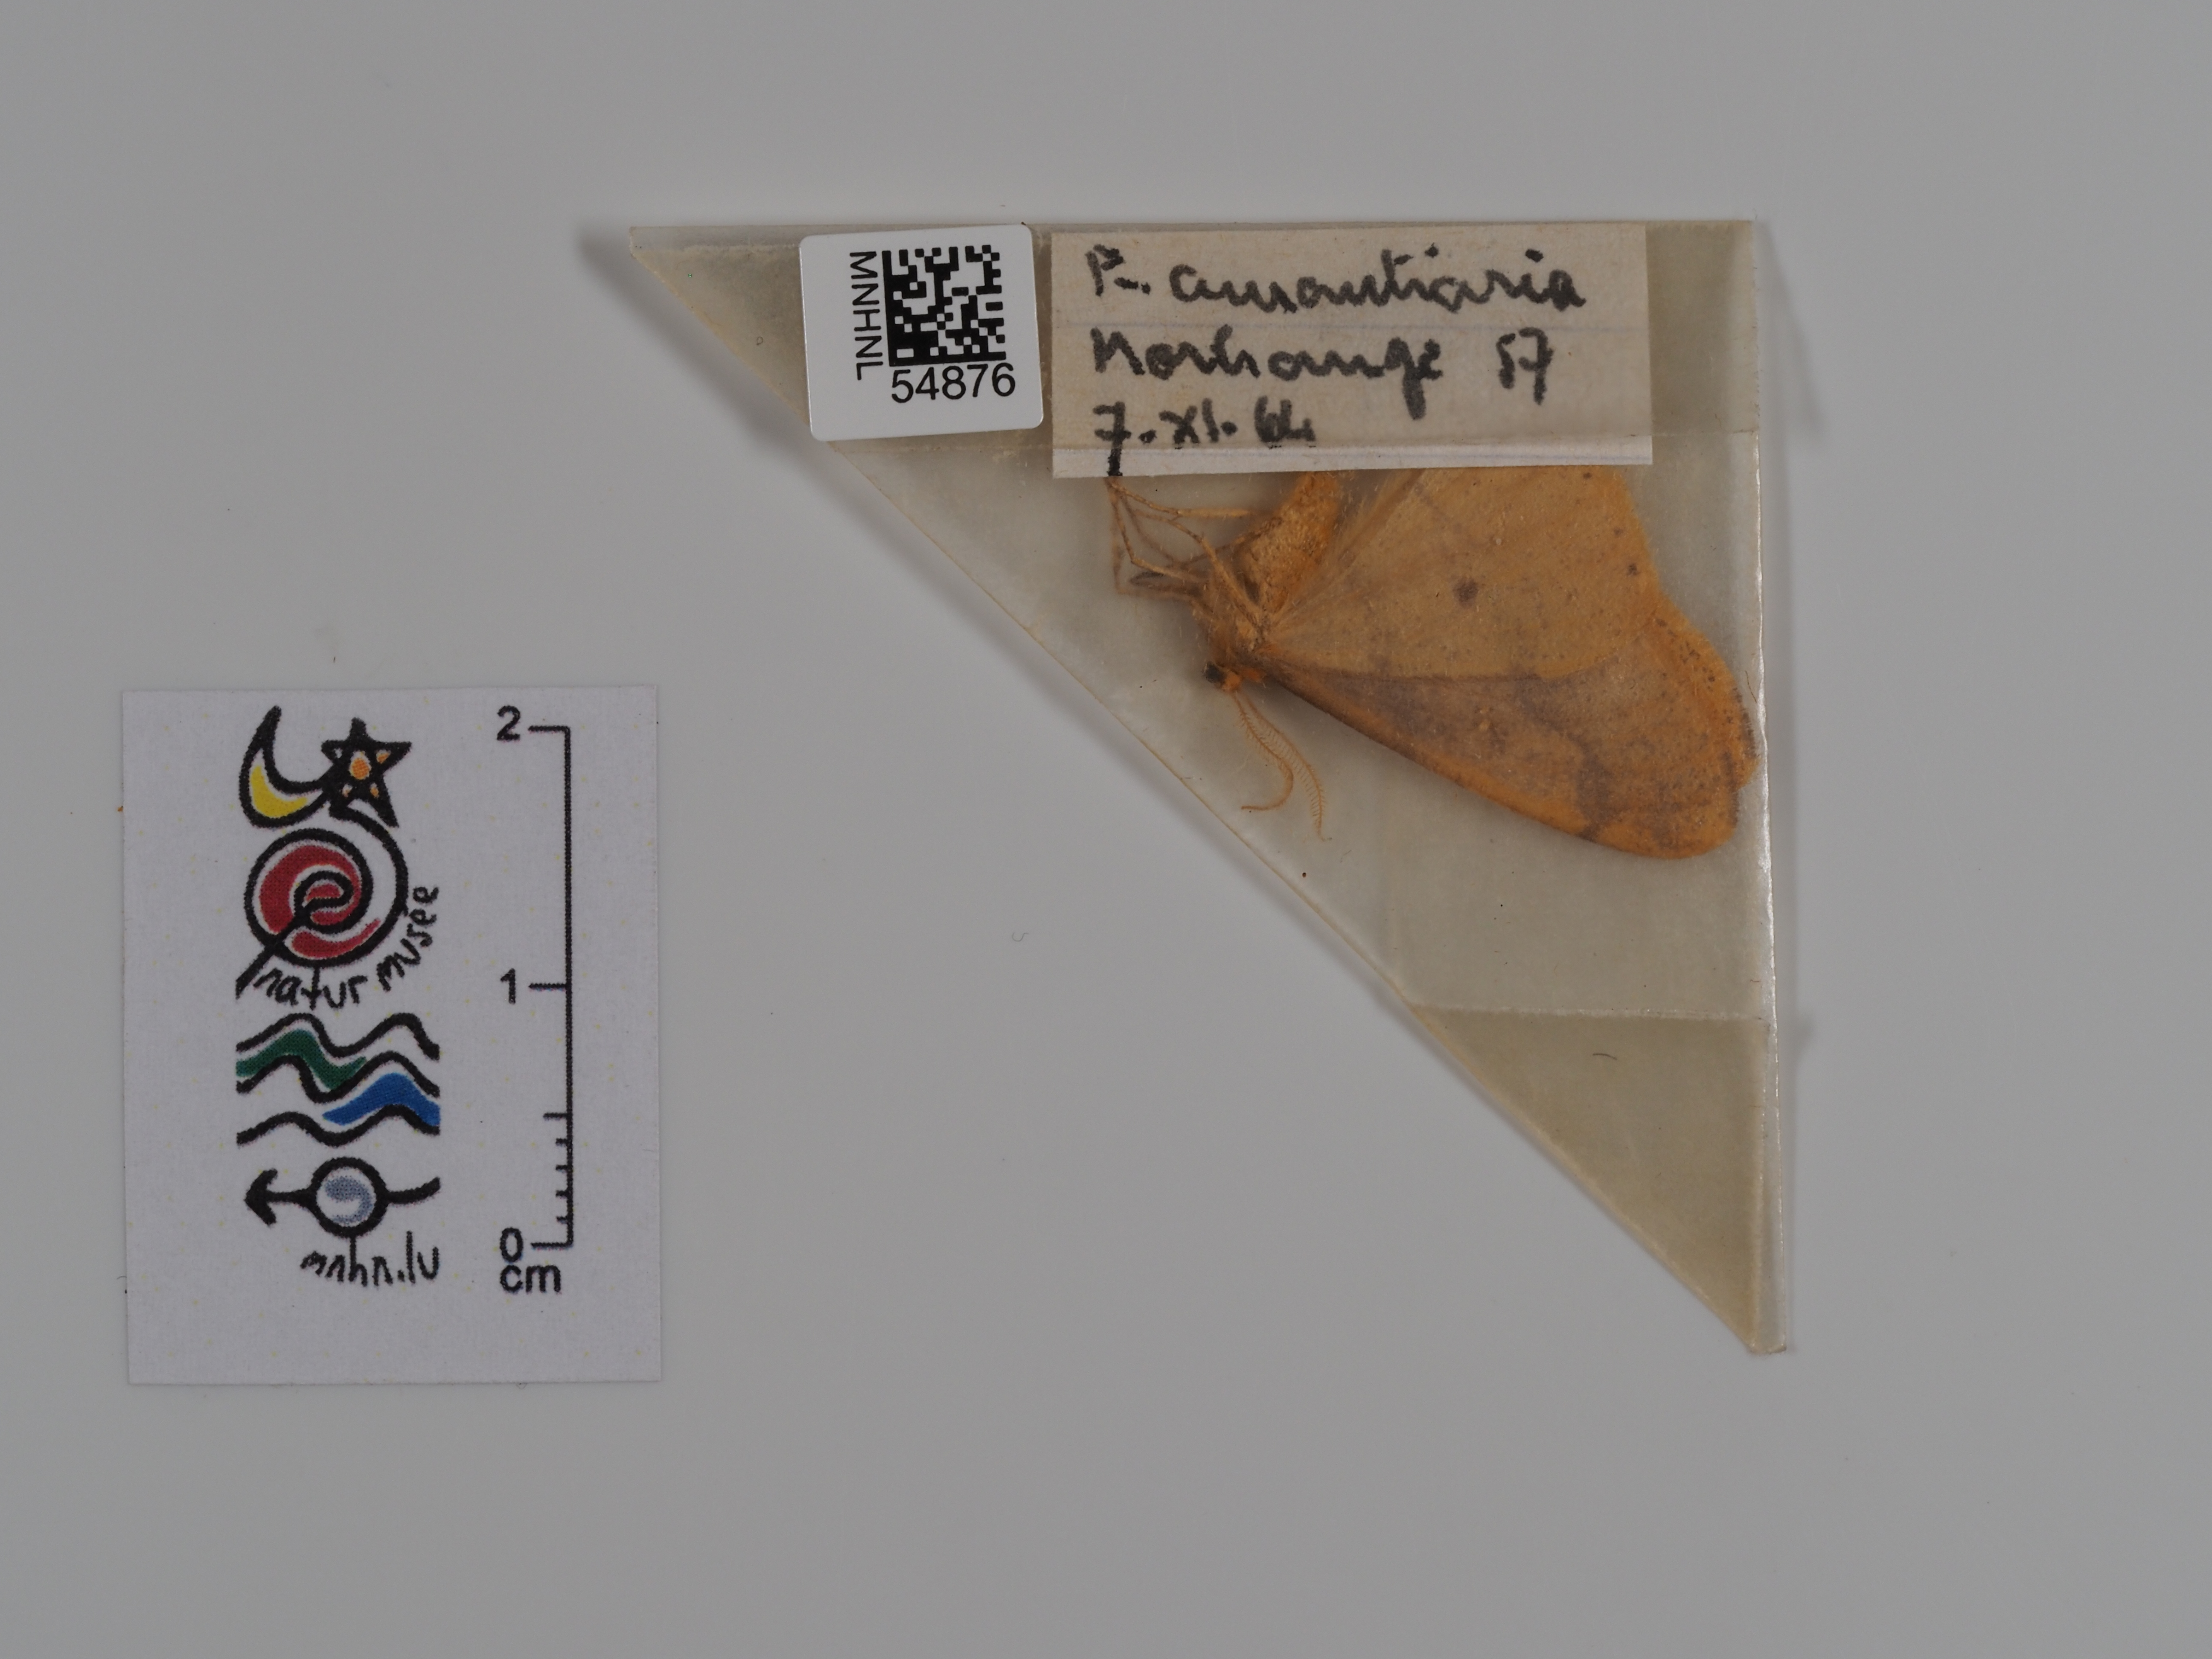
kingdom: Animalia
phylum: Arthropoda
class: Insecta
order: Lepidoptera
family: Geometridae
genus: Erannis
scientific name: Erannis
